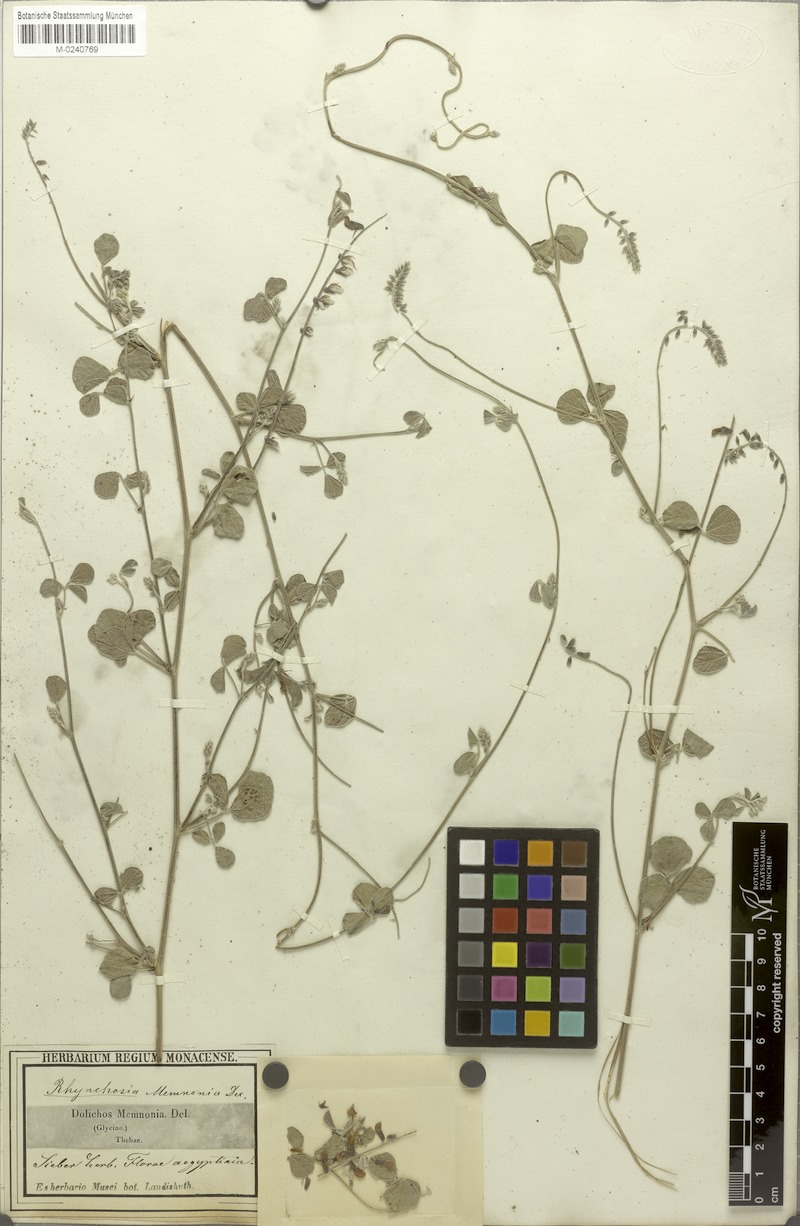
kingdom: Plantae
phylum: Tracheophyta
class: Magnoliopsida
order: Fabales
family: Fabaceae
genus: Rhynchosia
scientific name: Rhynchosia minima
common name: Least snoutbean
